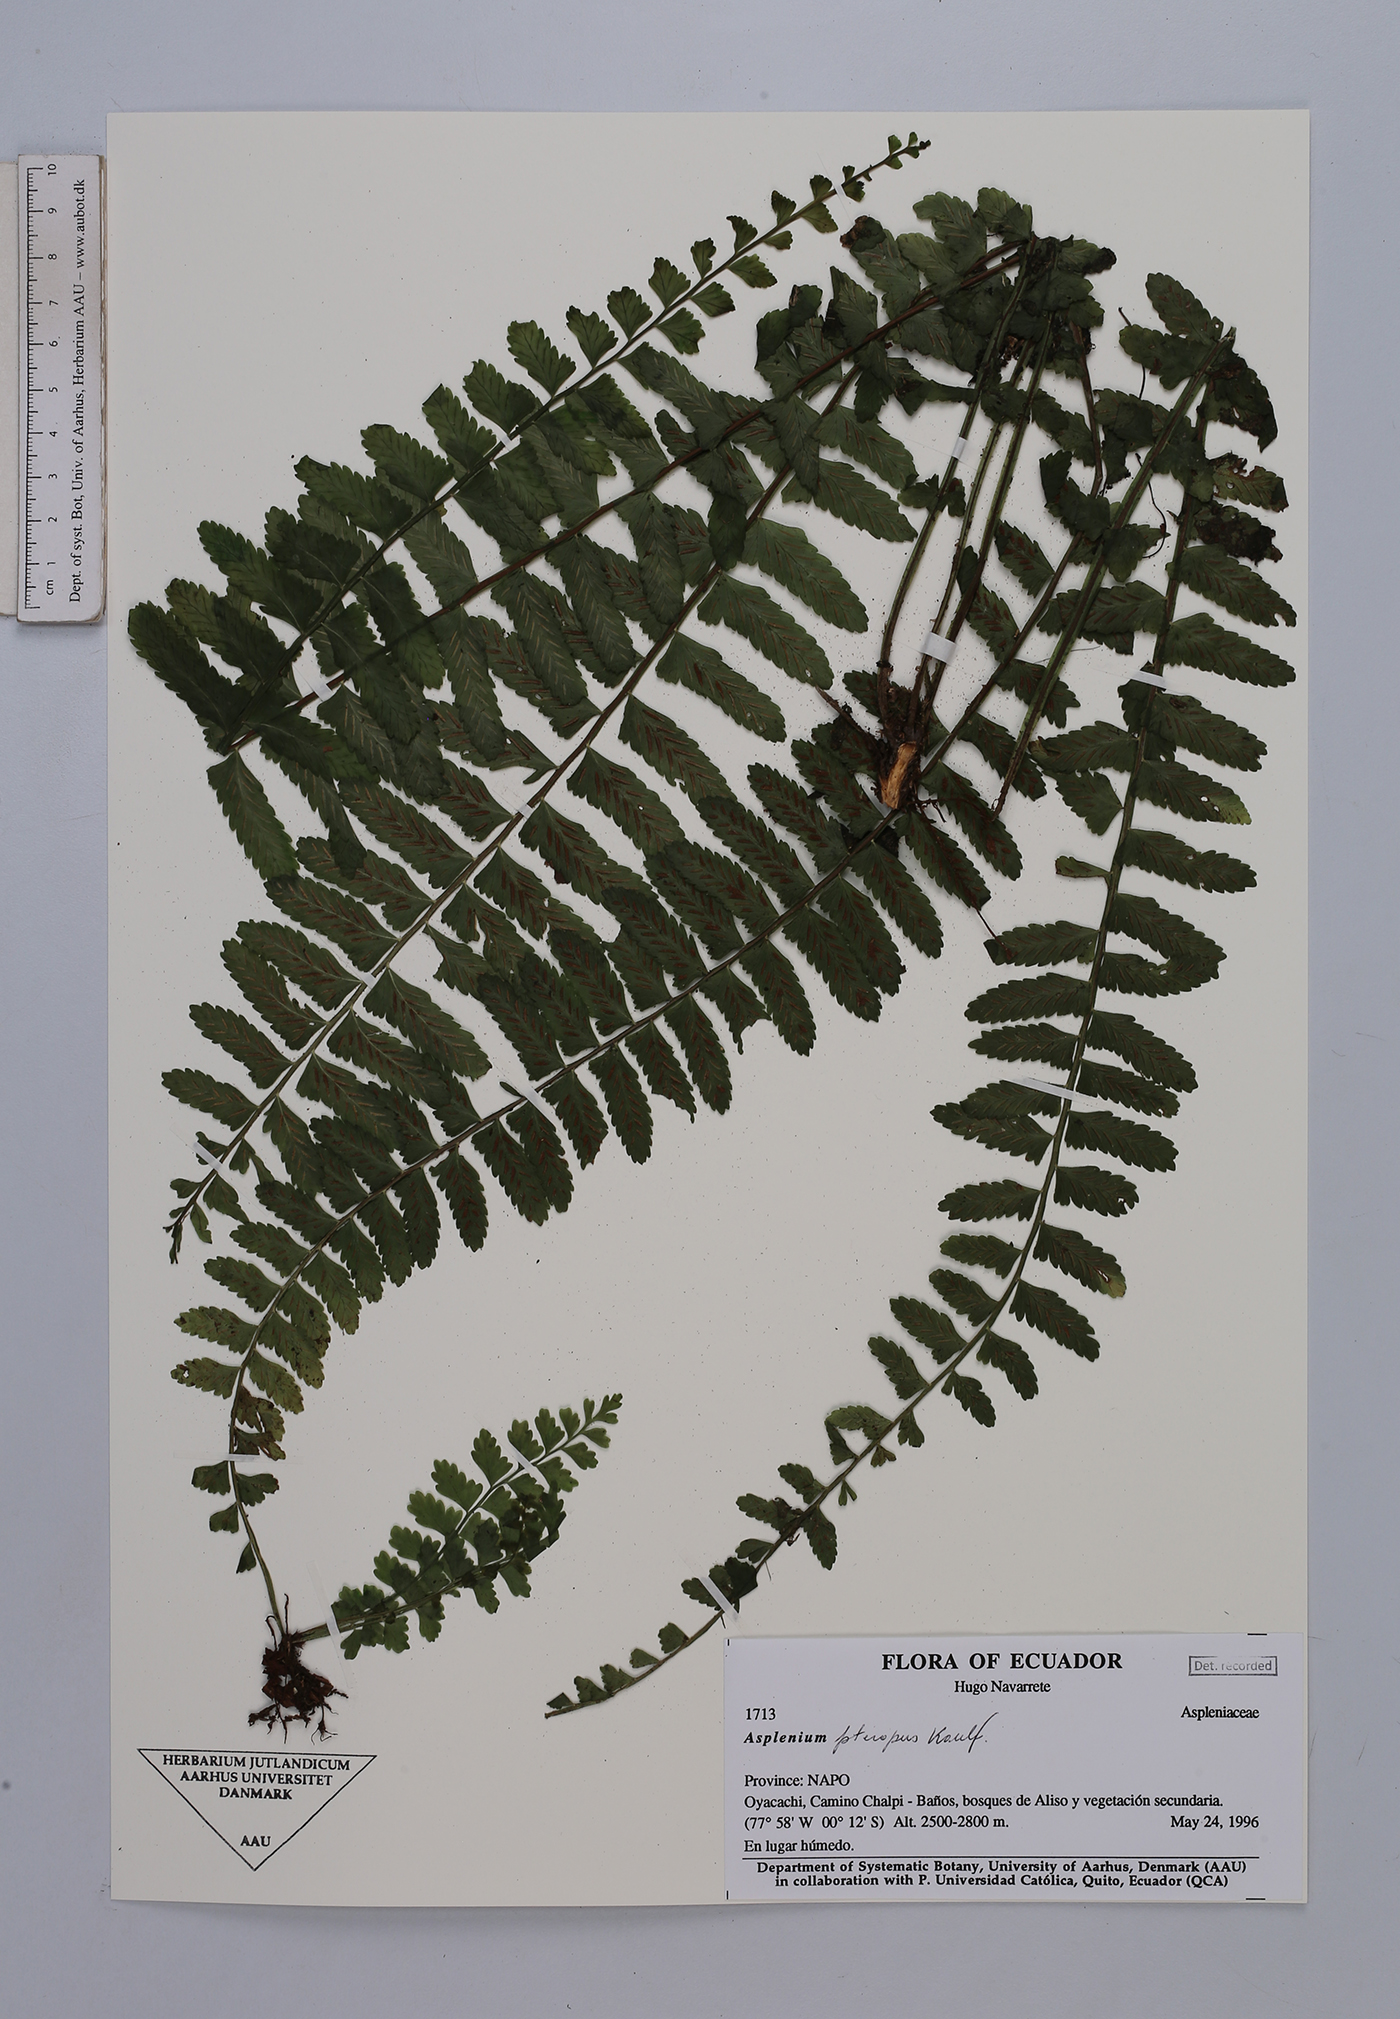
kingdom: Plantae
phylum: Tracheophyta
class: Polypodiopsida
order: Polypodiales
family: Aspleniaceae
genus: Asplenium
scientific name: Asplenium pteropus
